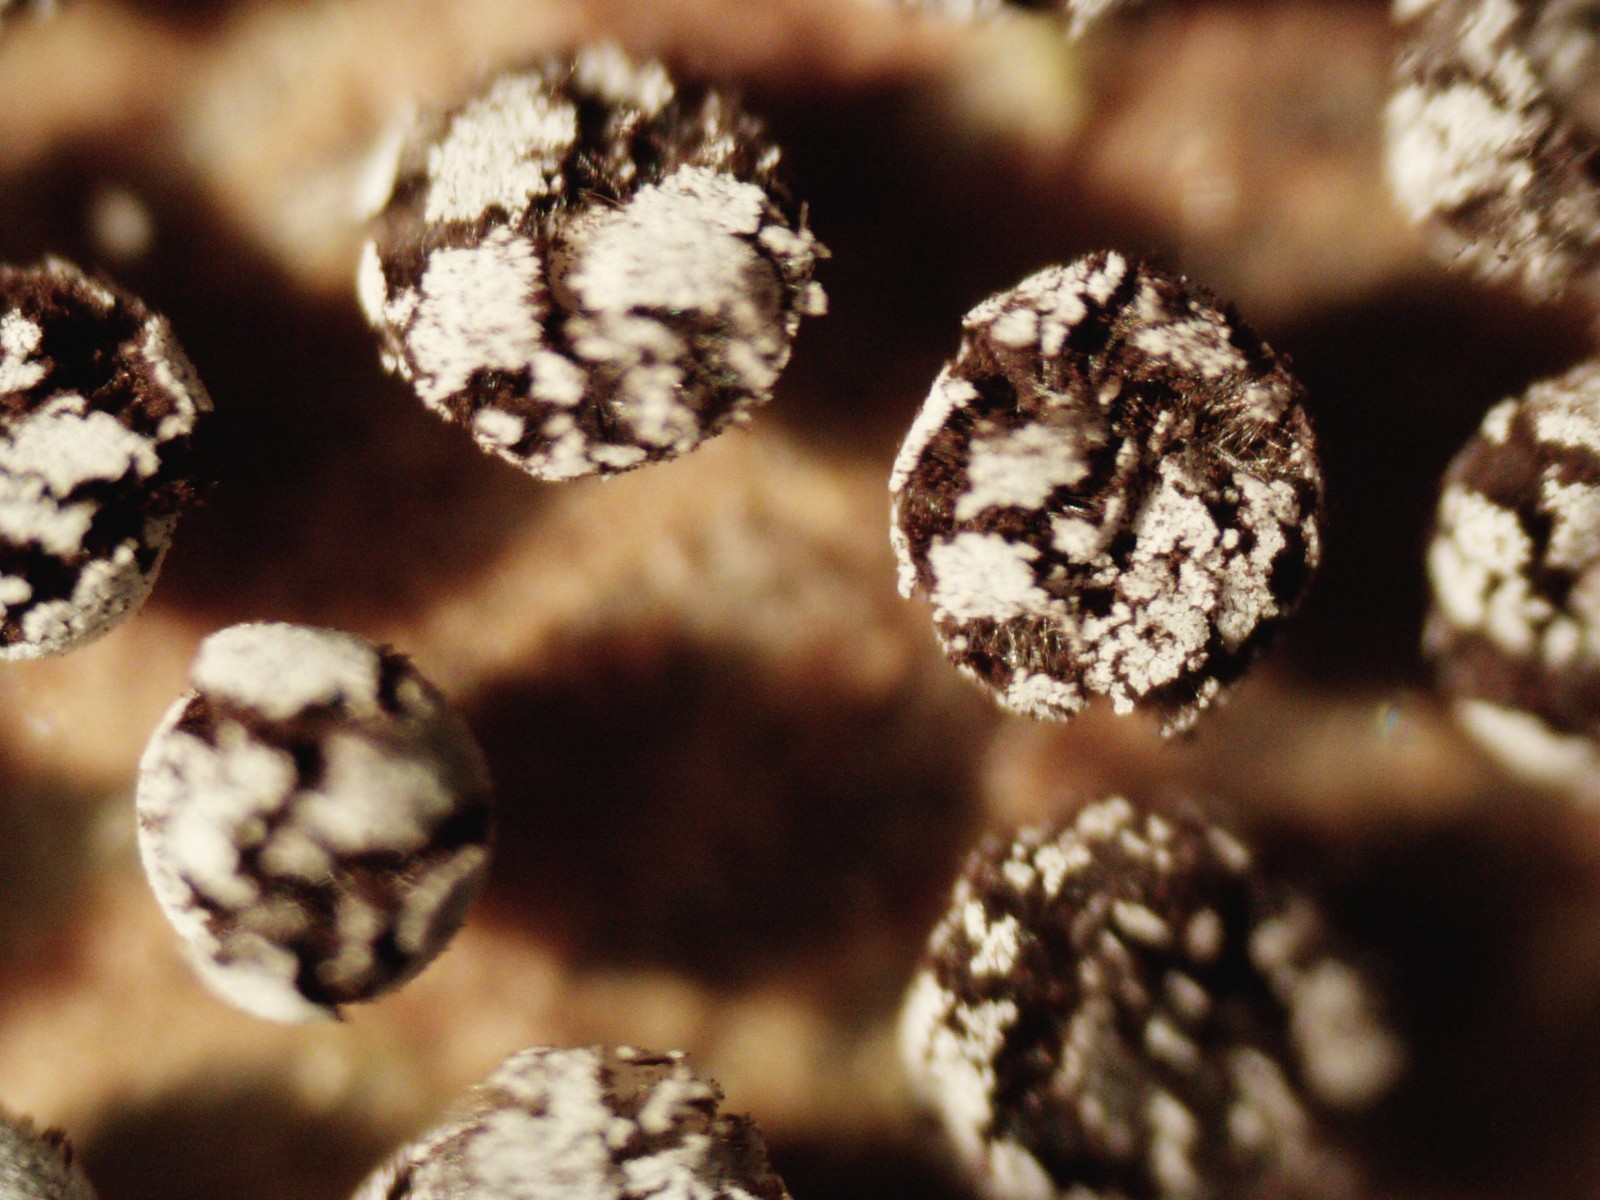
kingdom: Protozoa
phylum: Mycetozoa
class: Myxomycetes
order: Physarales
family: Didymiaceae
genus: Didymium
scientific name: Didymium squamulosum
